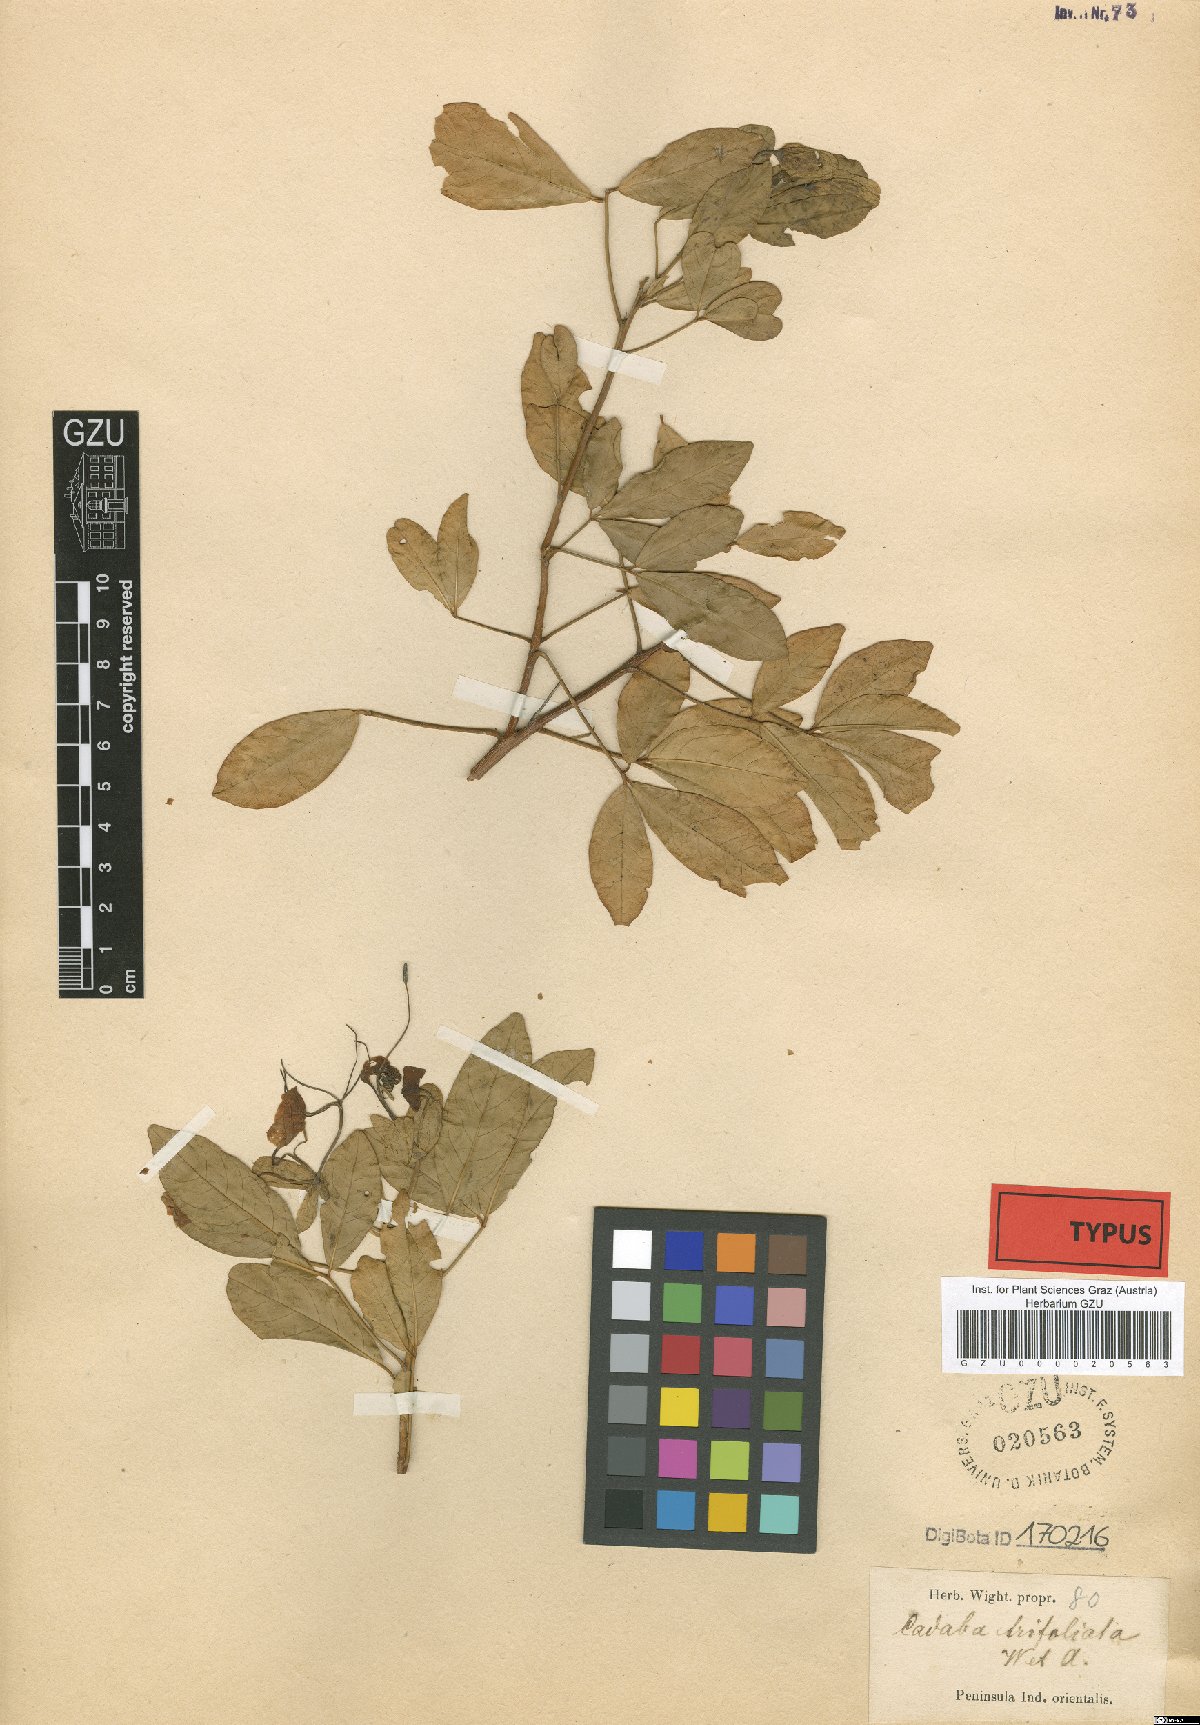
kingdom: Plantae
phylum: Tracheophyta
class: Magnoliopsida
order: Brassicales
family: Capparaceae
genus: Cadaba
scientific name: Cadaba trifoliata
